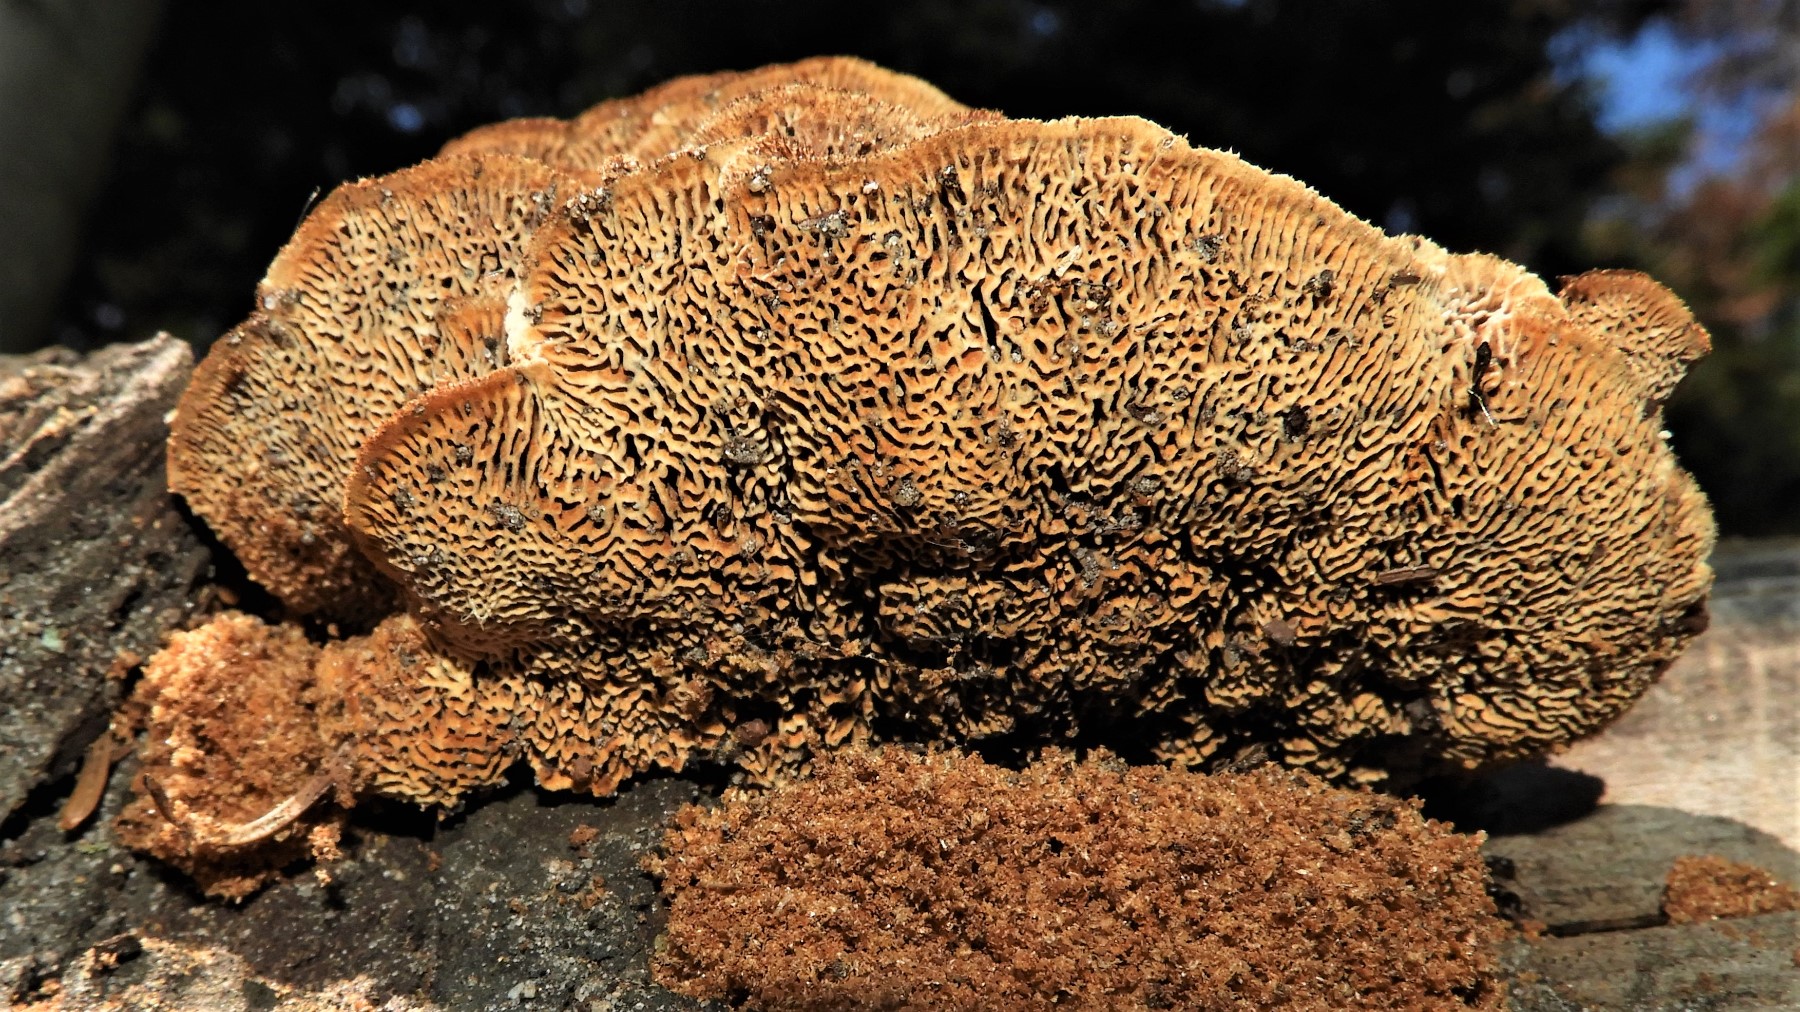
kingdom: Fungi
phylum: Basidiomycota
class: Agaricomycetes
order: Gloeophyllales
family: Gloeophyllaceae
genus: Gloeophyllum
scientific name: Gloeophyllum sepiarium
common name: fyrre-korkhat
